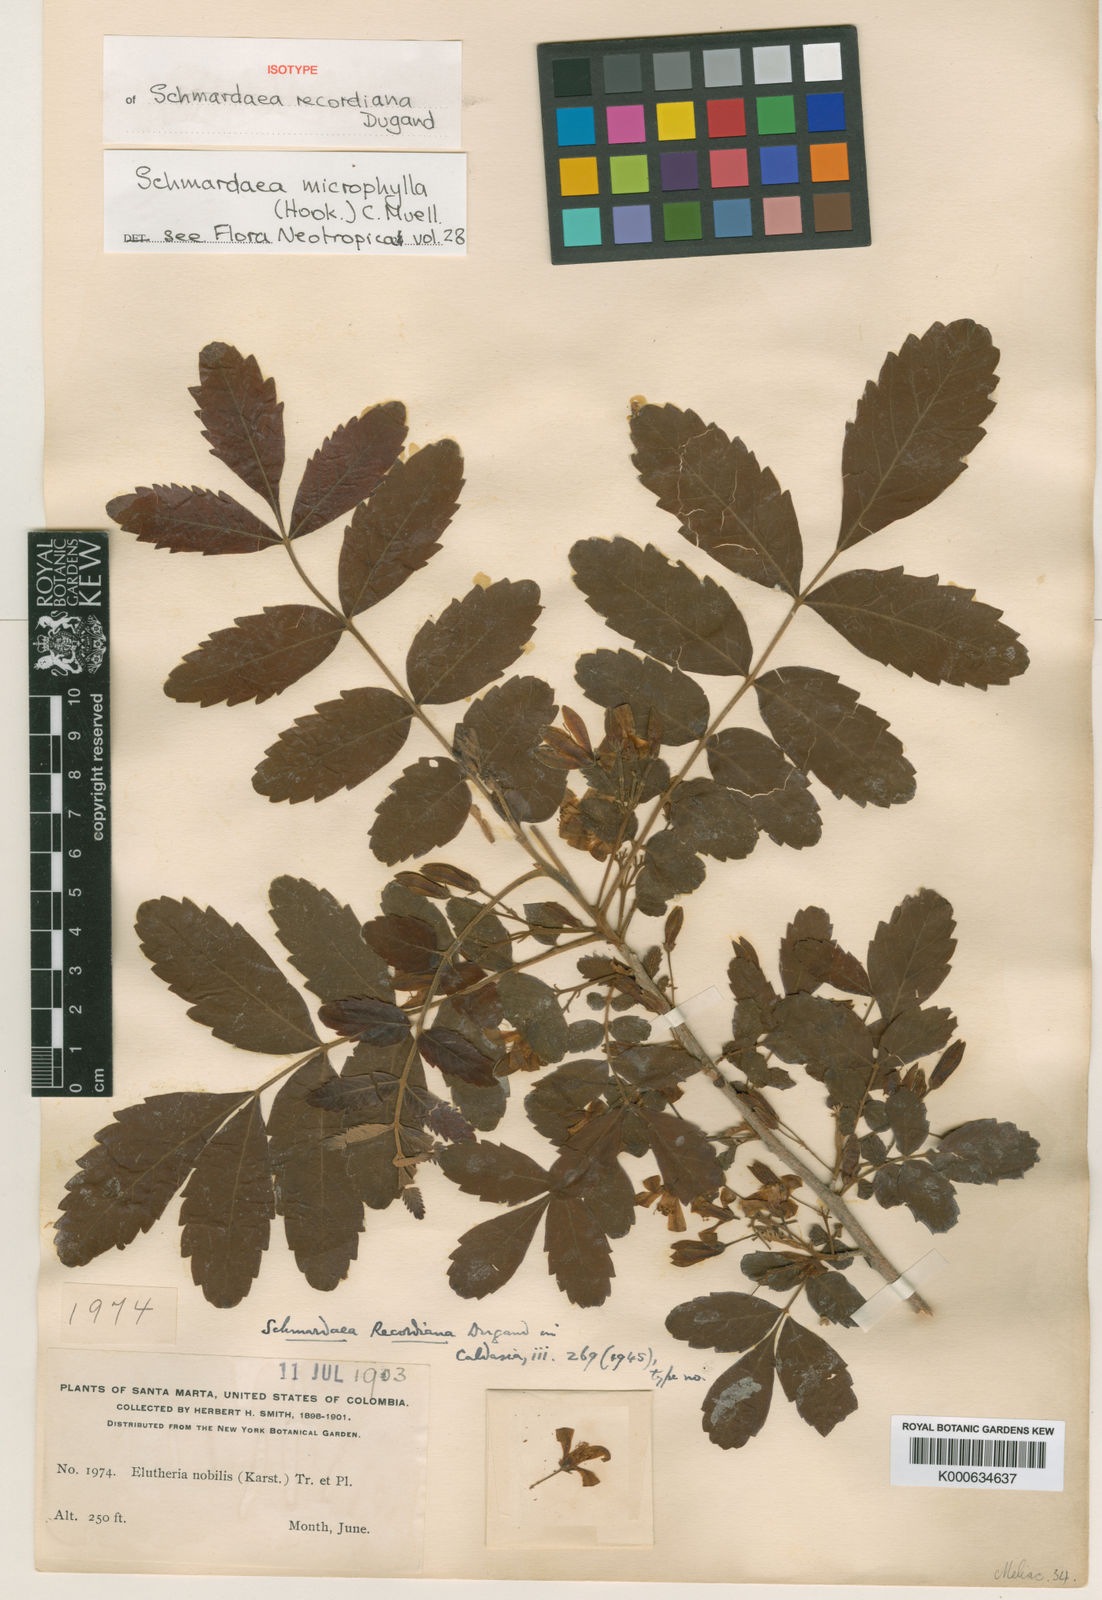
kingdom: Plantae
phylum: Tracheophyta
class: Magnoliopsida
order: Sapindales
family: Meliaceae
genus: Schmardaea
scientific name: Schmardaea
